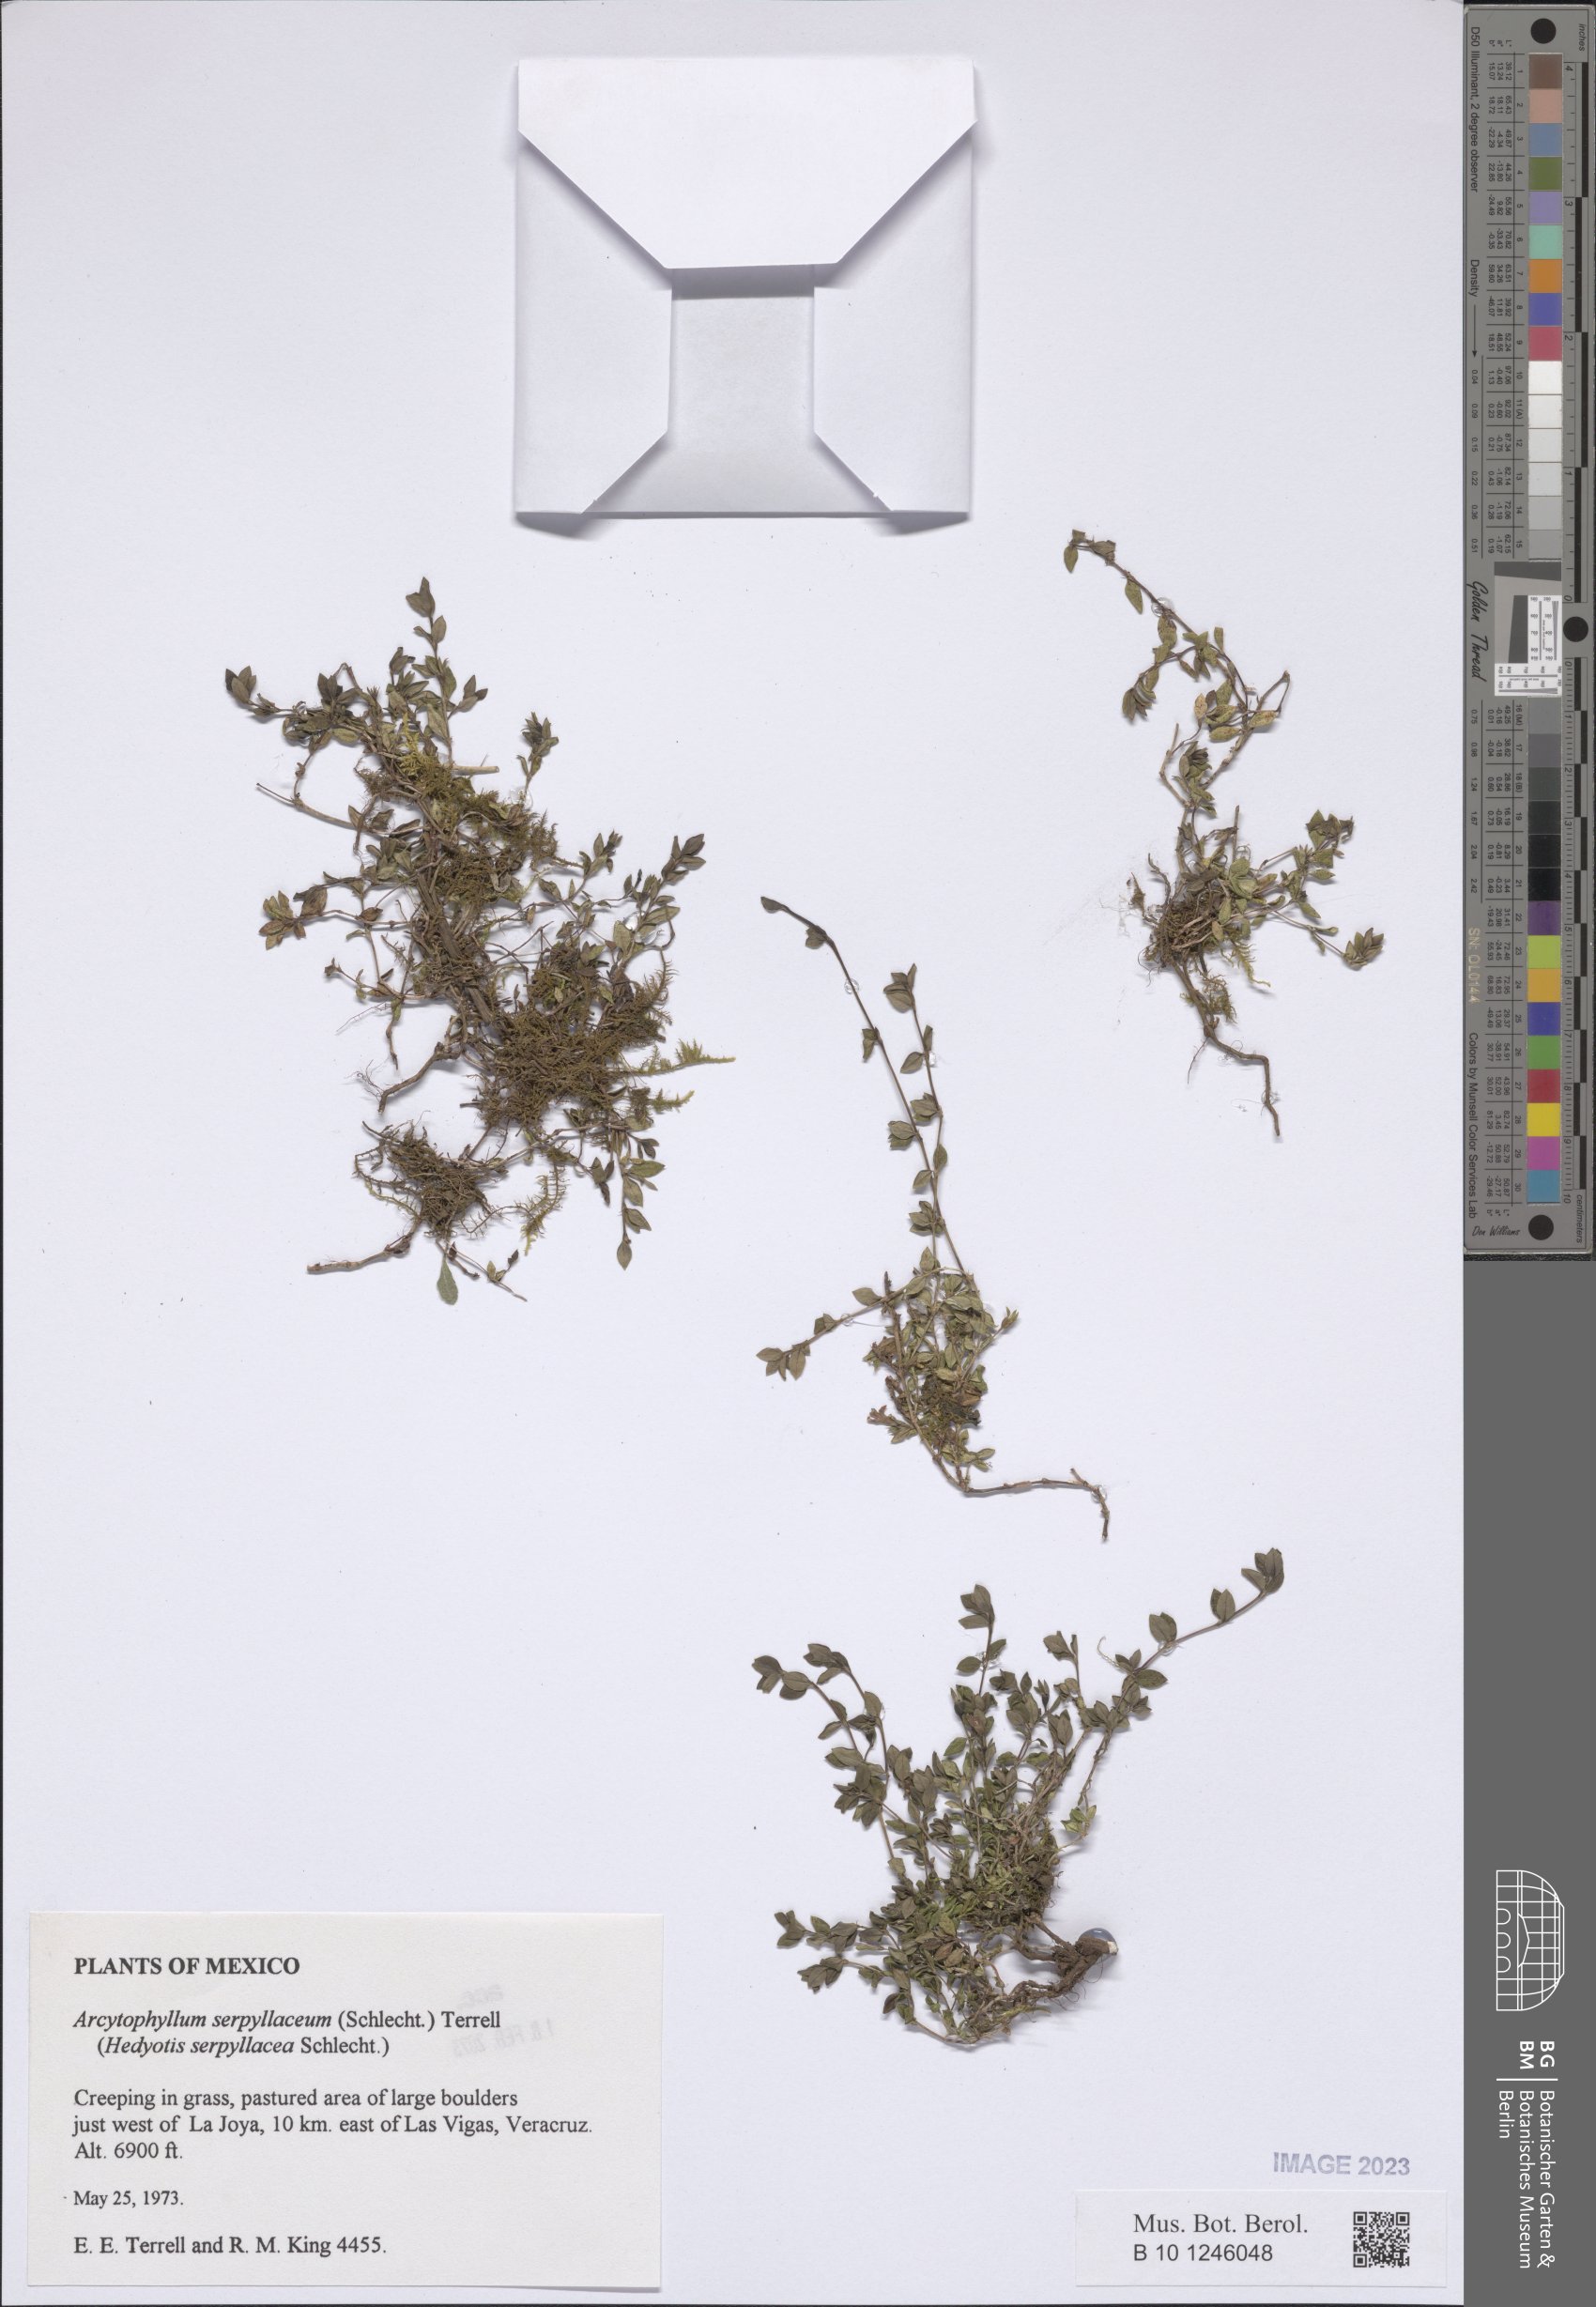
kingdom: Plantae
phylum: Tracheophyta
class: Magnoliopsida
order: Gentianales
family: Rubiaceae
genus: Arcytophyllum
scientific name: Arcytophyllum serpyllaceum
